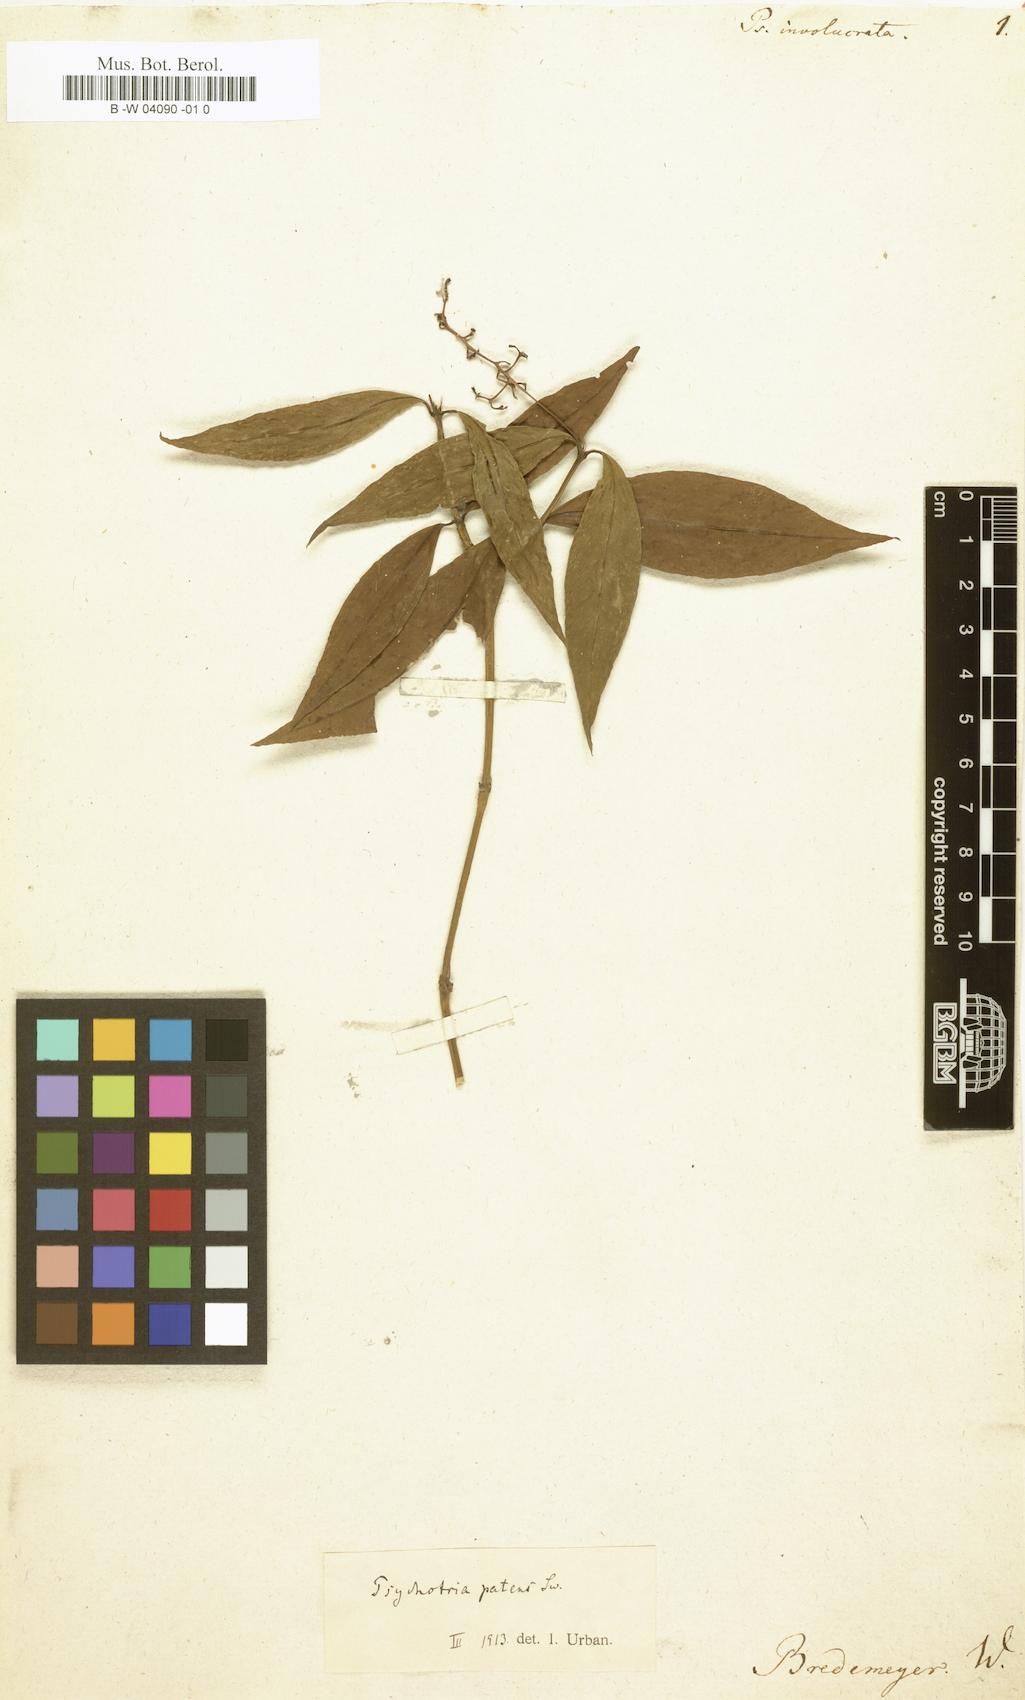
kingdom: Plantae
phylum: Tracheophyta
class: Magnoliopsida
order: Gentianales
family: Rubiaceae
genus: Psychotria
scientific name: Psychotria involucrata
